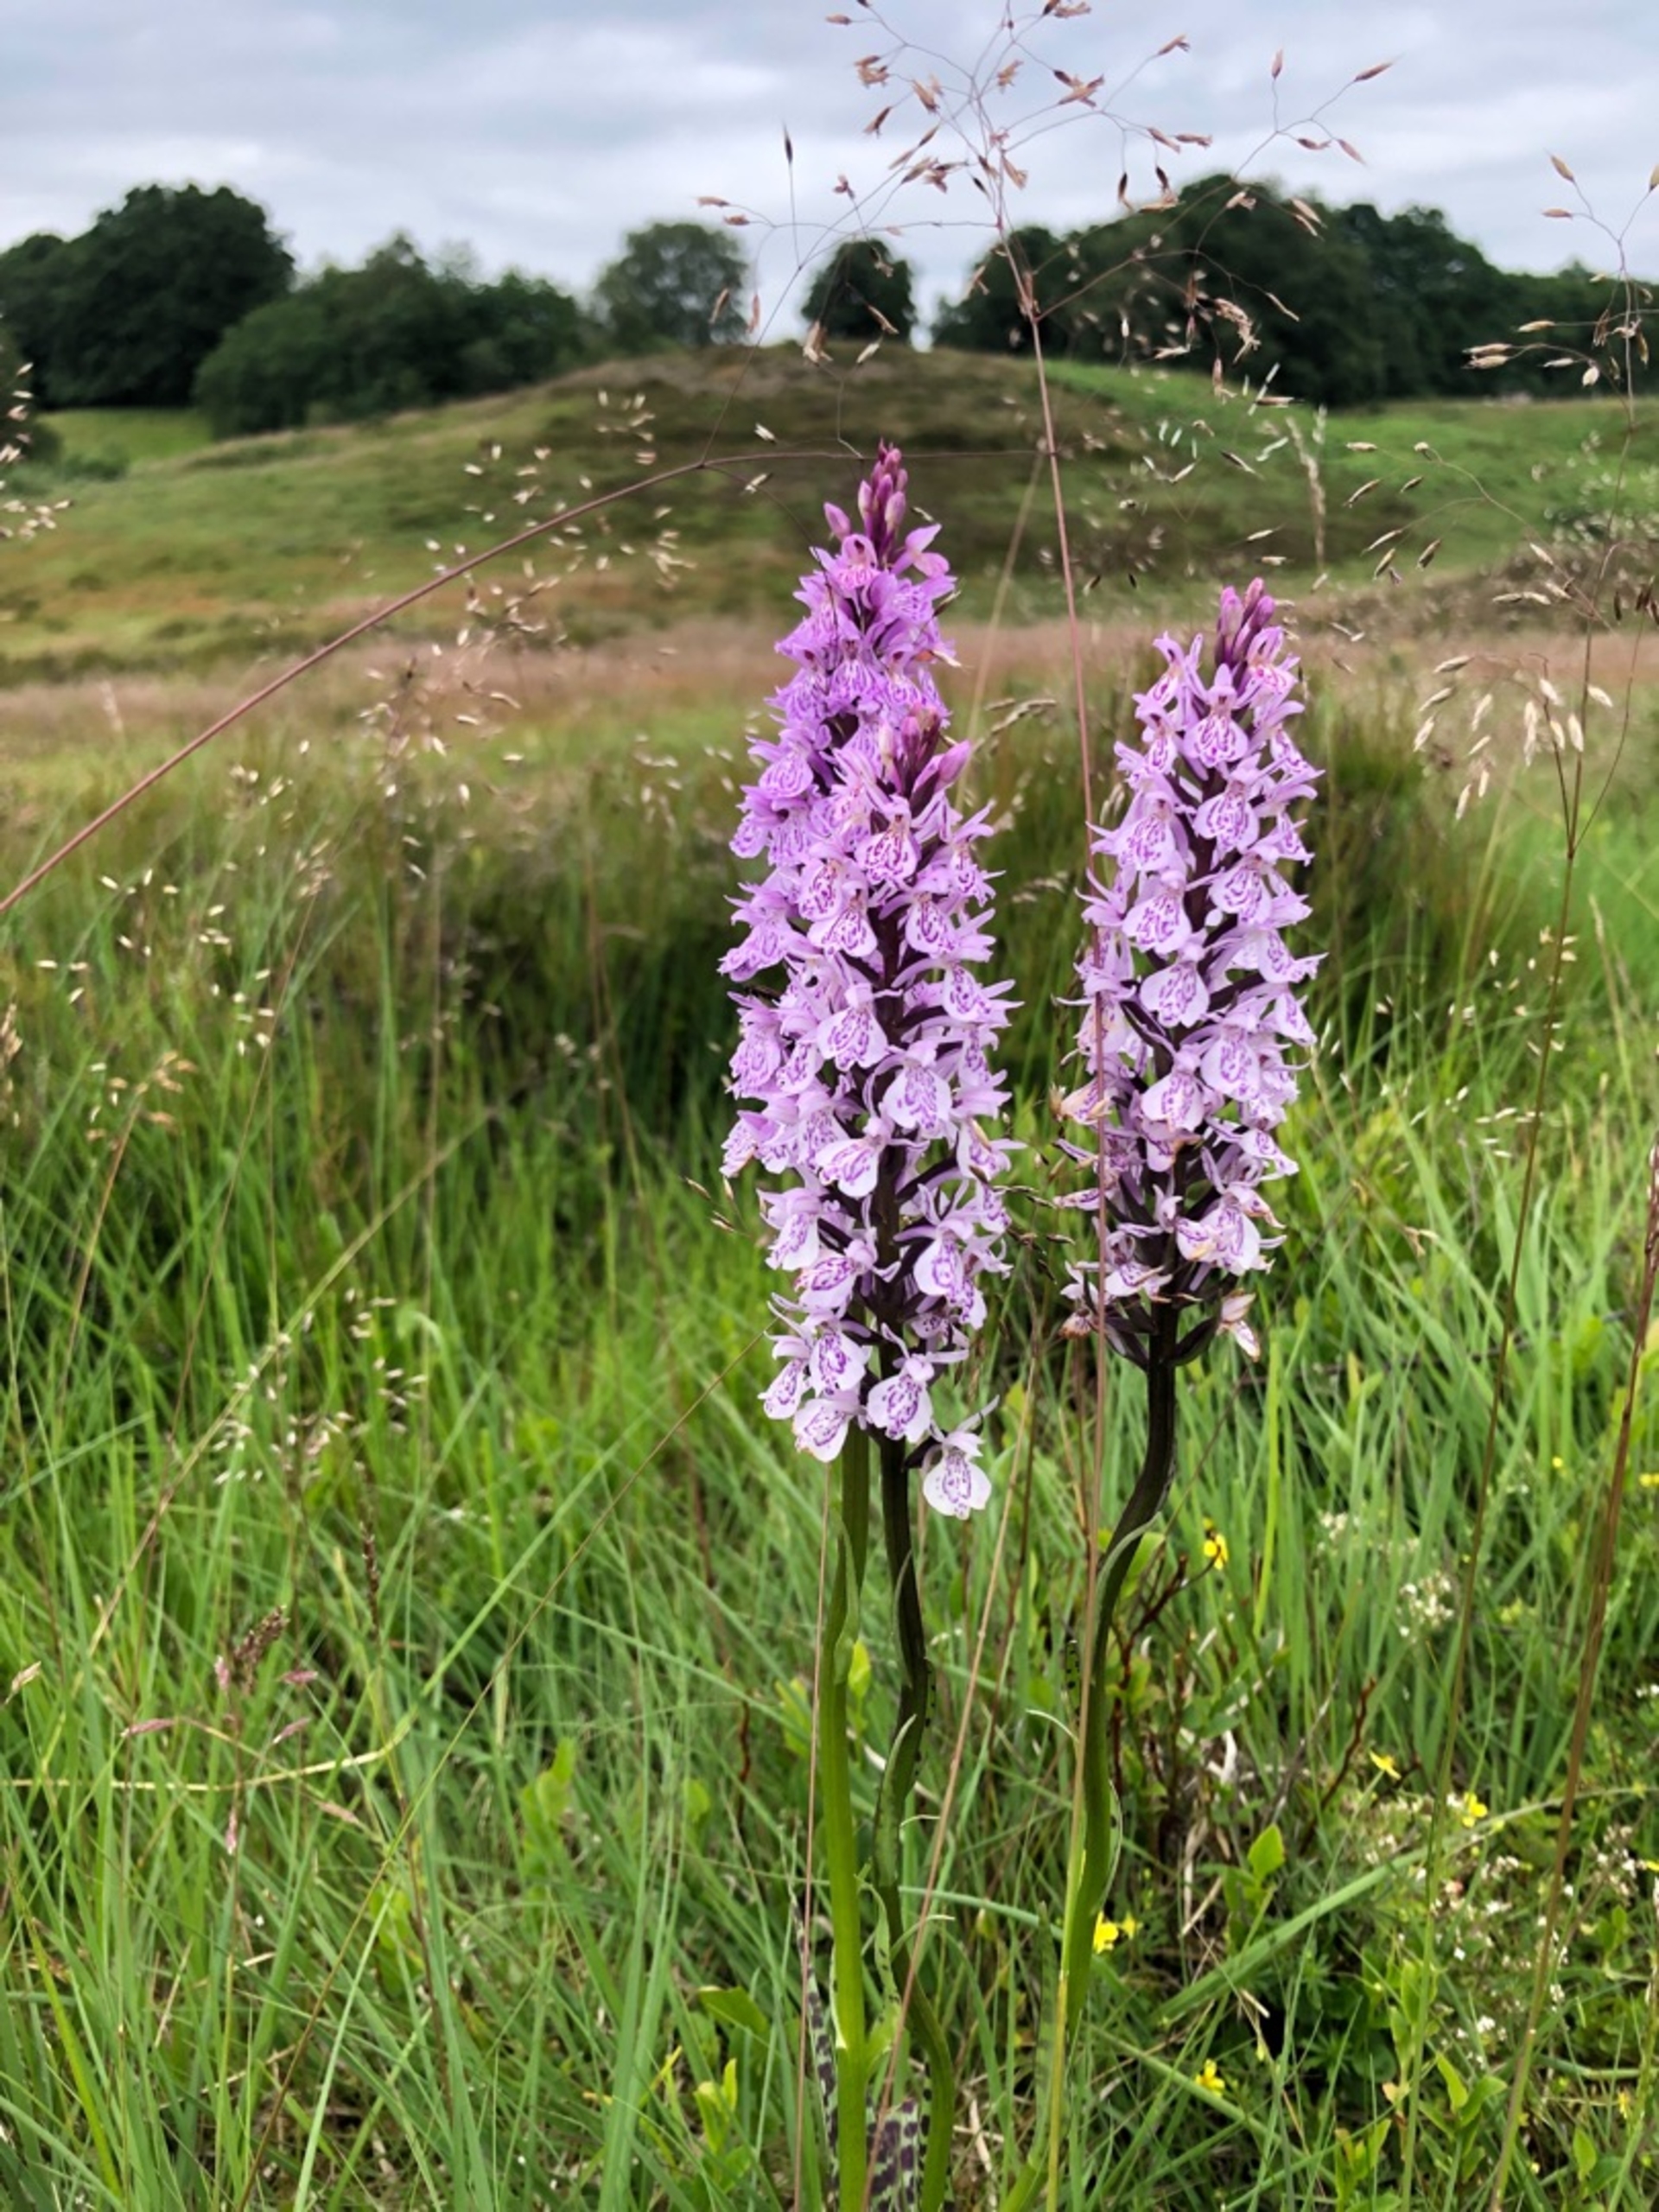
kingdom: Plantae
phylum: Tracheophyta
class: Liliopsida
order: Asparagales
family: Orchidaceae
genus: Dactylorhiza
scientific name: Dactylorhiza maculata
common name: Plettet gøgeurt
